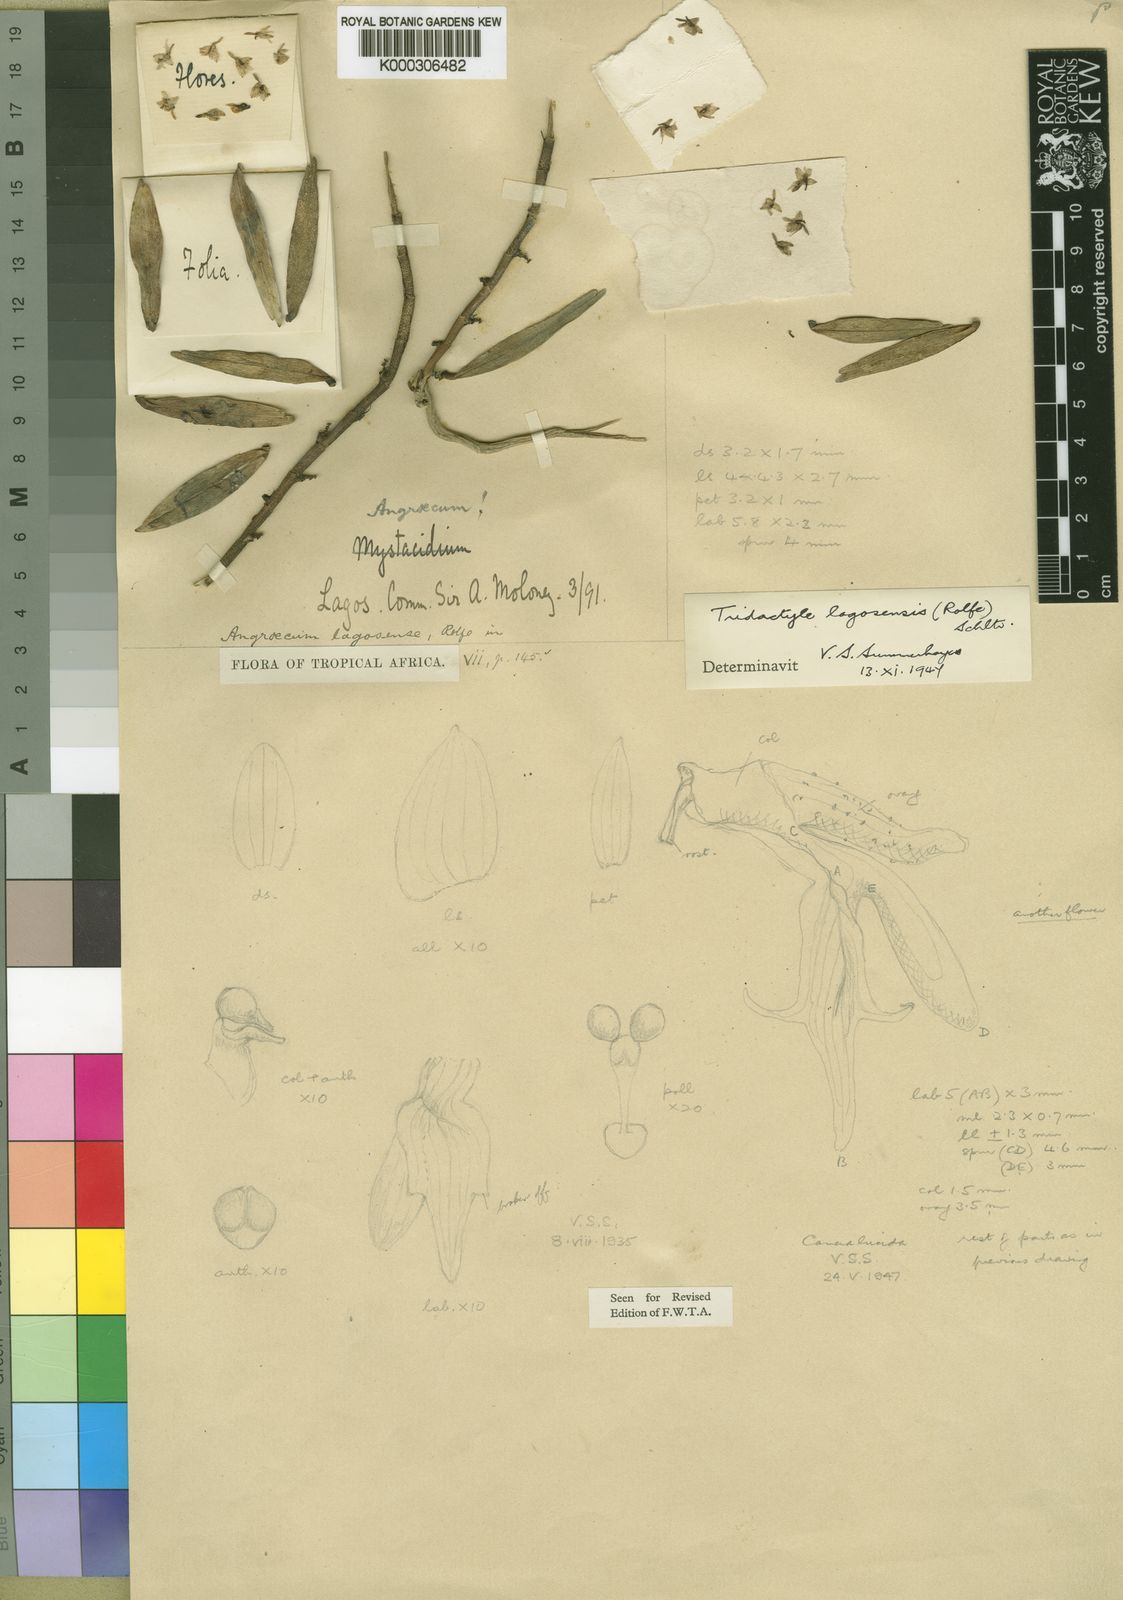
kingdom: Plantae
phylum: Tracheophyta
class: Liliopsida
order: Asparagales
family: Orchidaceae
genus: Tridactyle
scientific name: Tridactyle lagosensis
